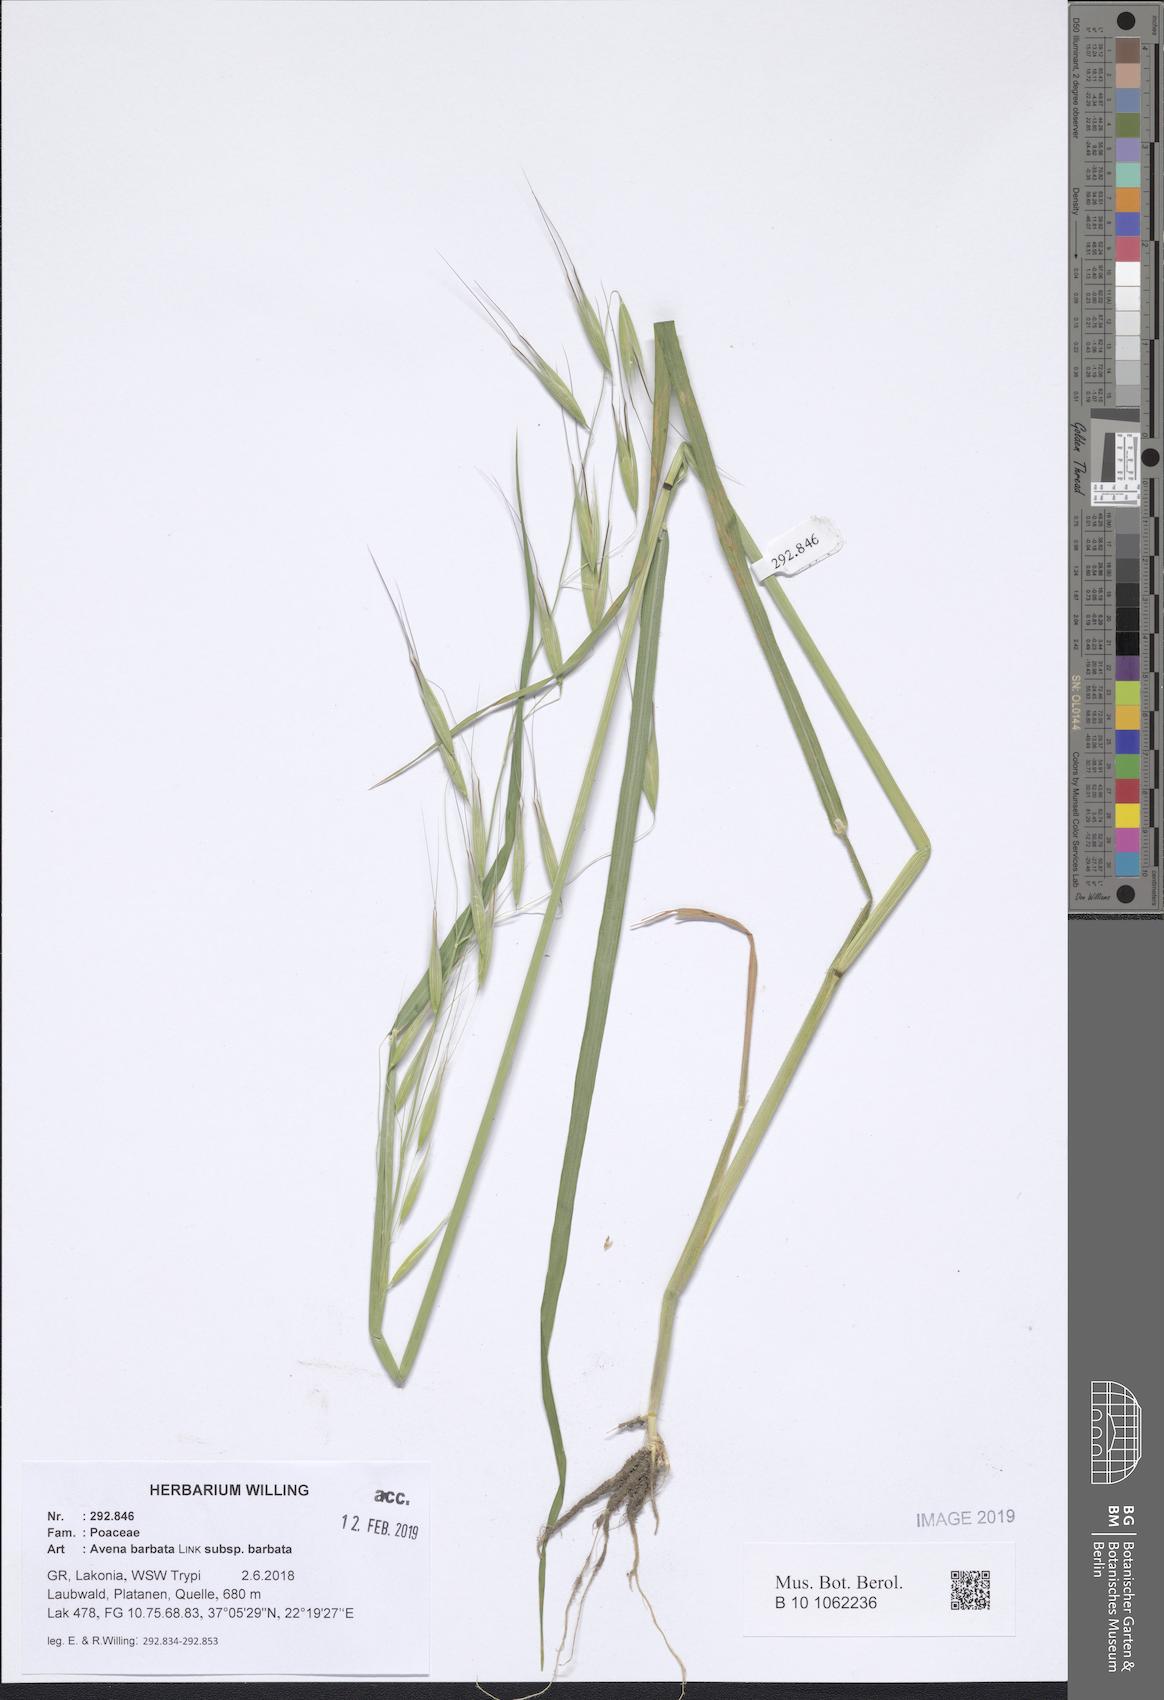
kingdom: Plantae
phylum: Tracheophyta
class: Liliopsida
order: Poales
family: Poaceae
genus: Avena
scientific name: Avena barbata
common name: Slender oat
